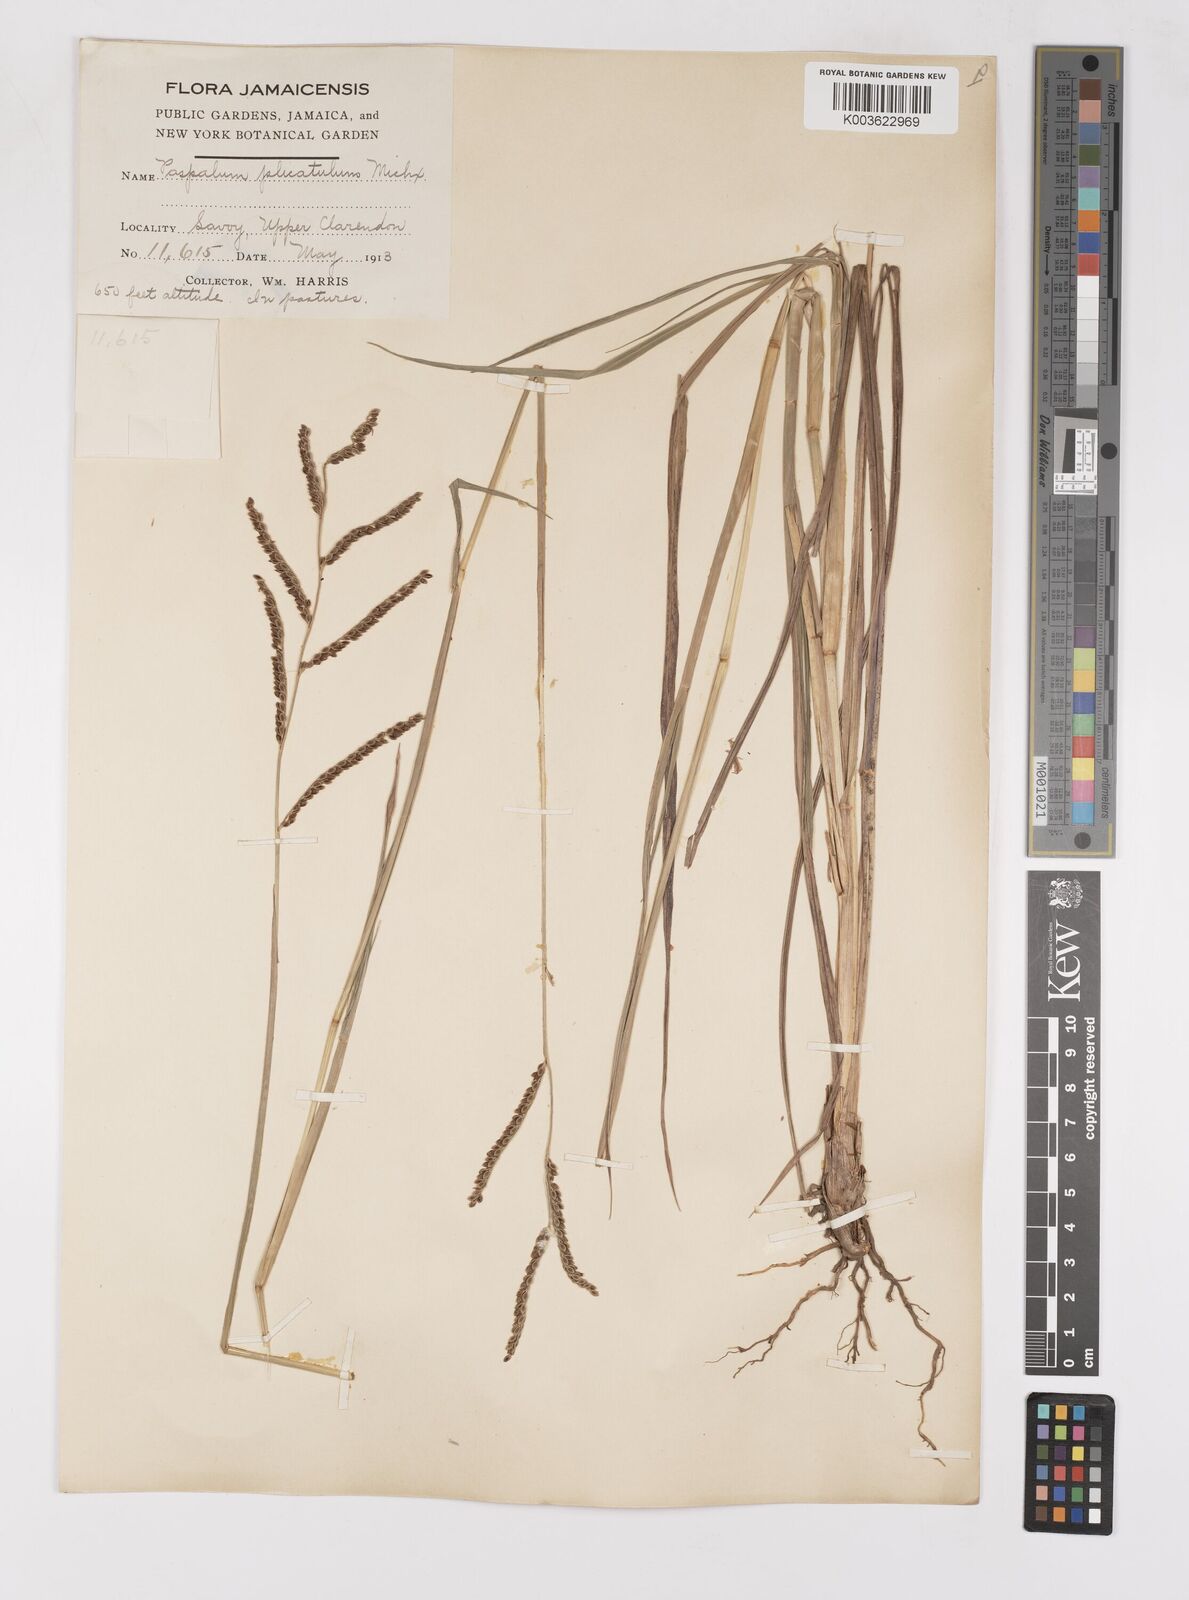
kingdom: Plantae
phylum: Tracheophyta
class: Liliopsida
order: Poales
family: Poaceae
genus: Paspalum
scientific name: Paspalum
